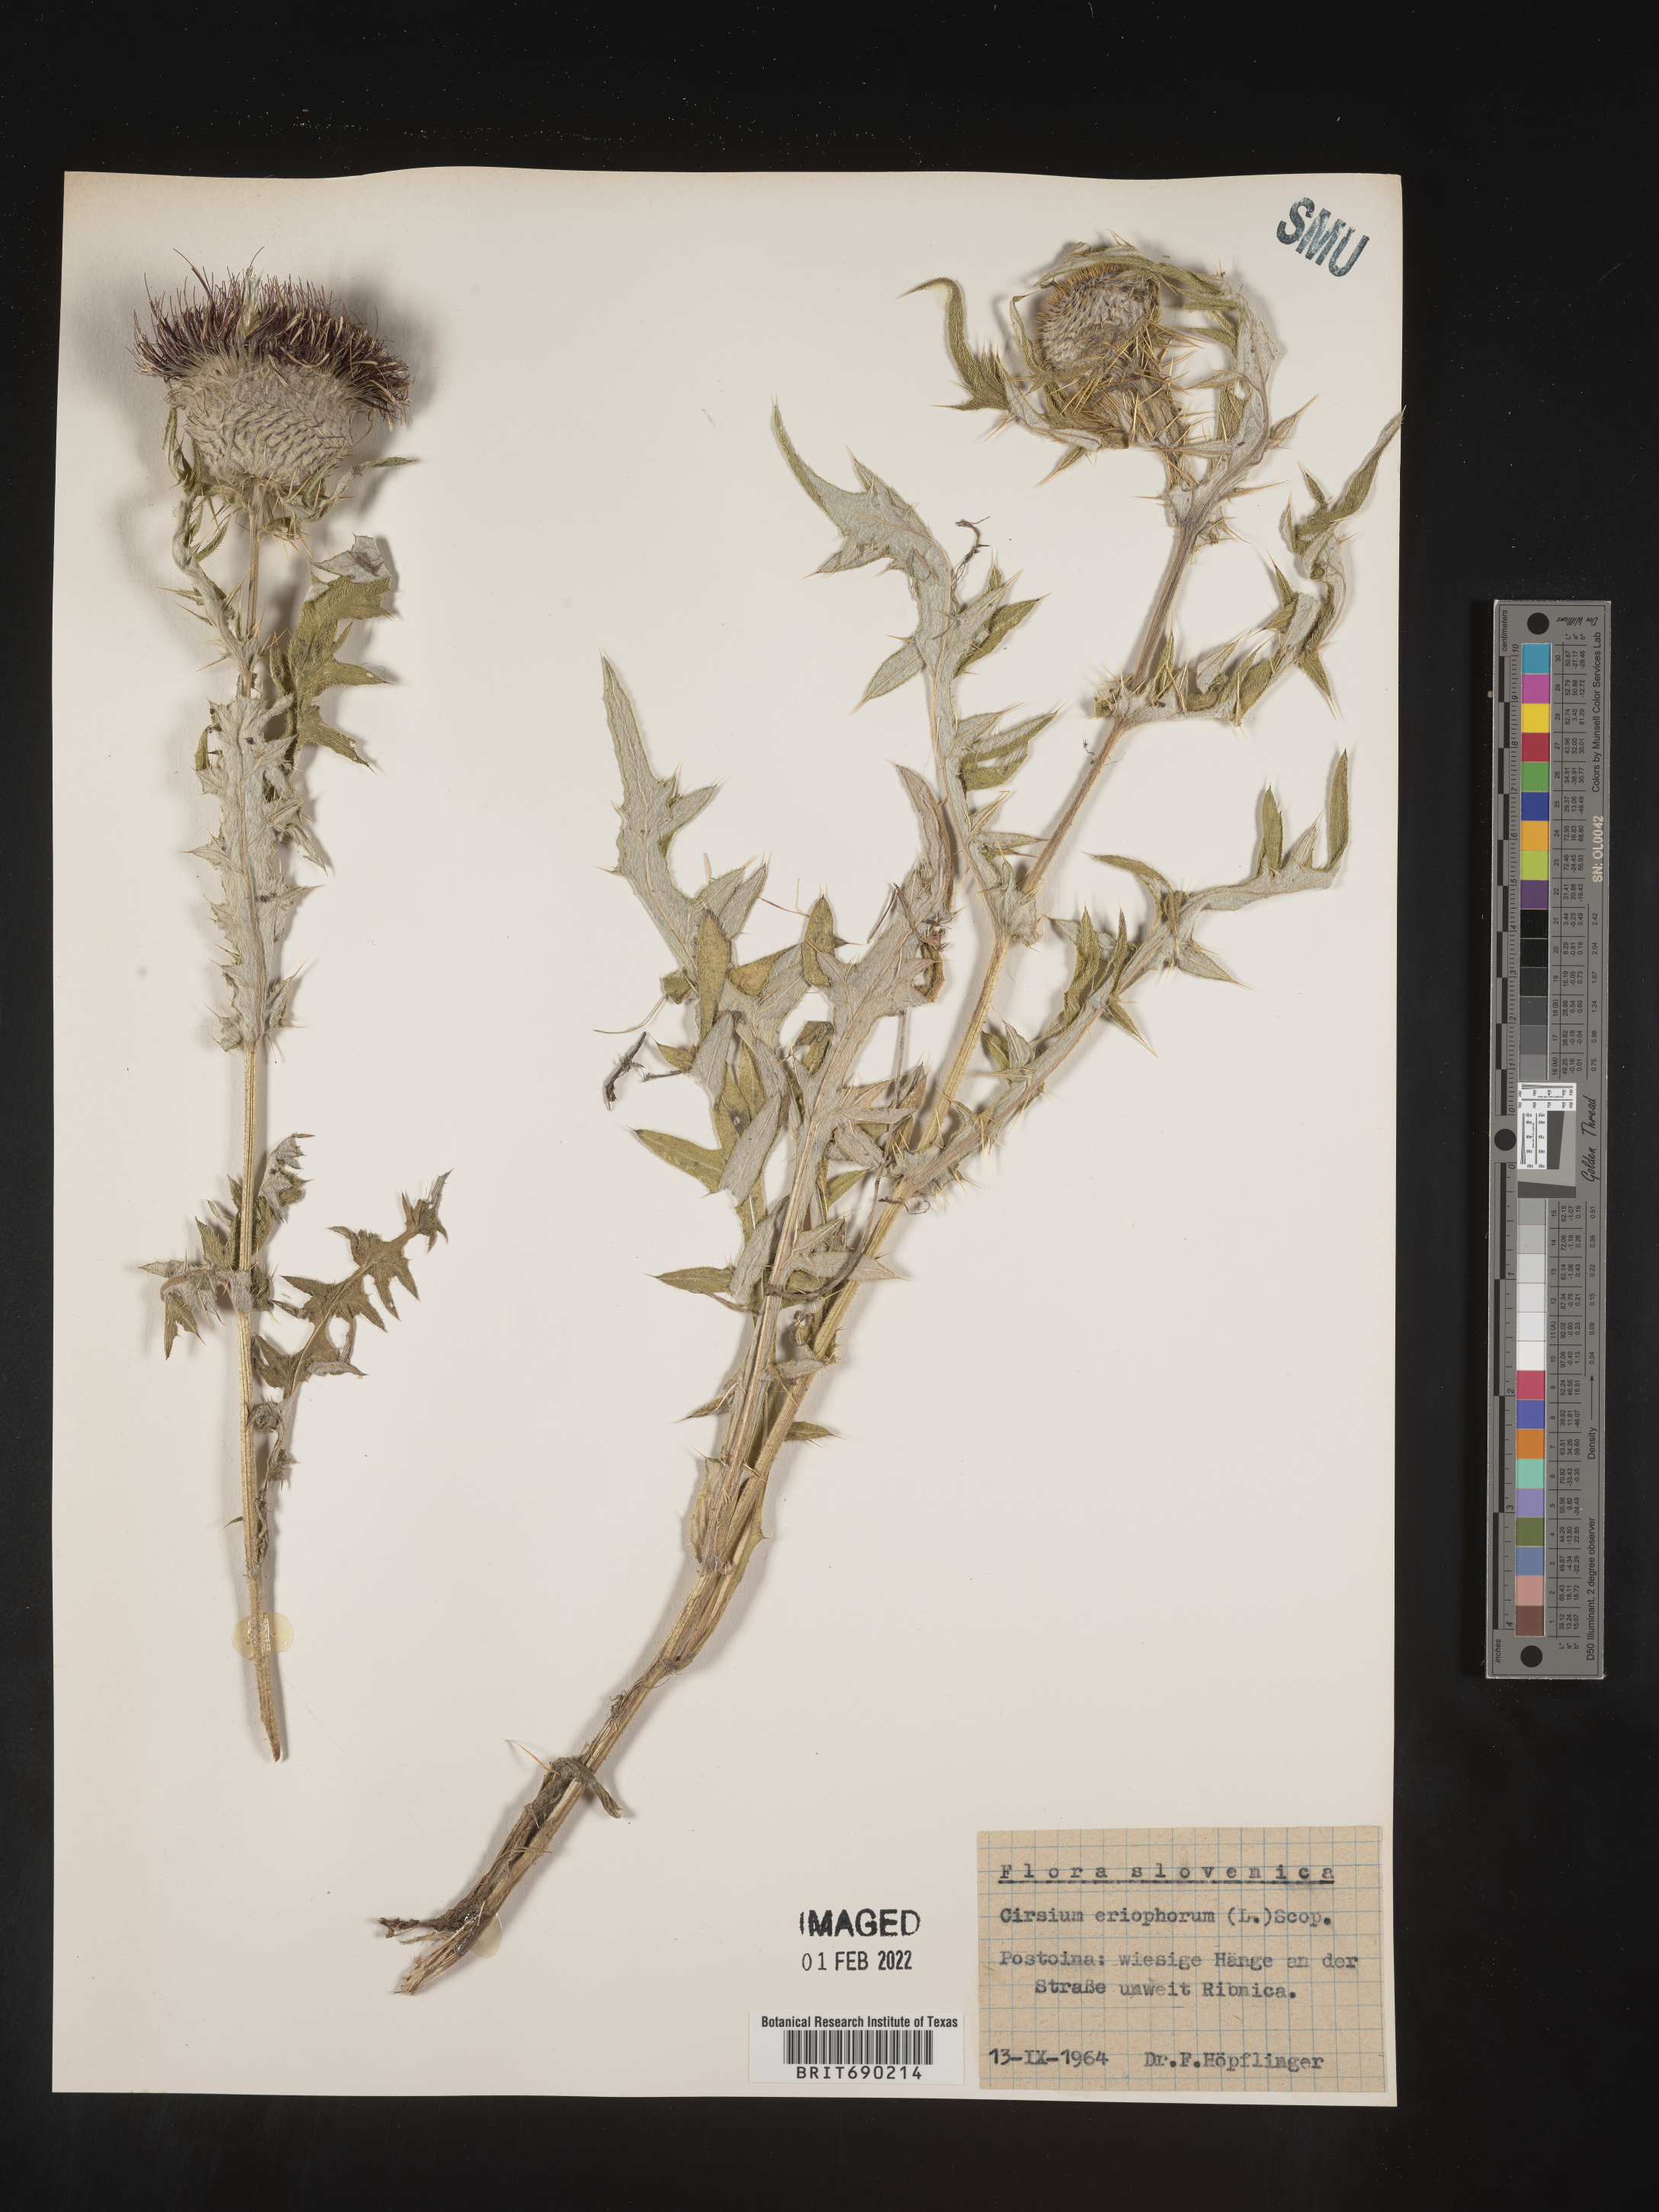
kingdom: Plantae
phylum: Tracheophyta
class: Magnoliopsida
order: Asterales
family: Asteraceae
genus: Cirsium
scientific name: Cirsium
